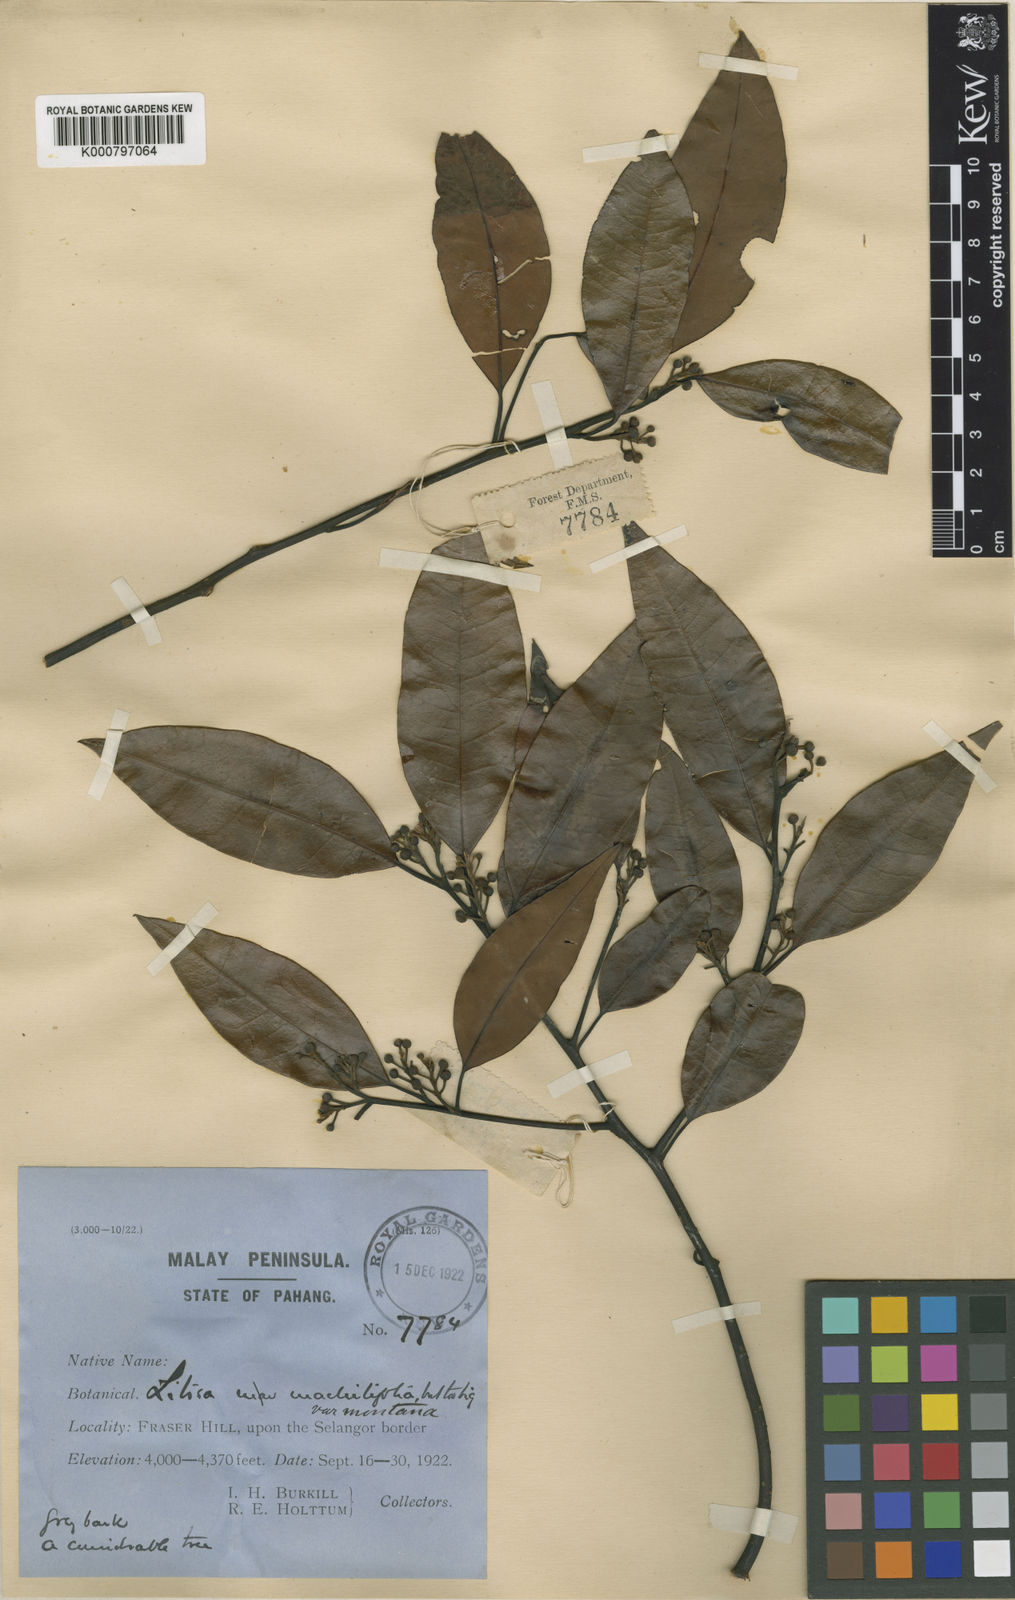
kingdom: Plantae
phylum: Tracheophyta
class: Magnoliopsida
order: Laurales
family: Lauraceae
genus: Litsea
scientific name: Litsea machilifolia
